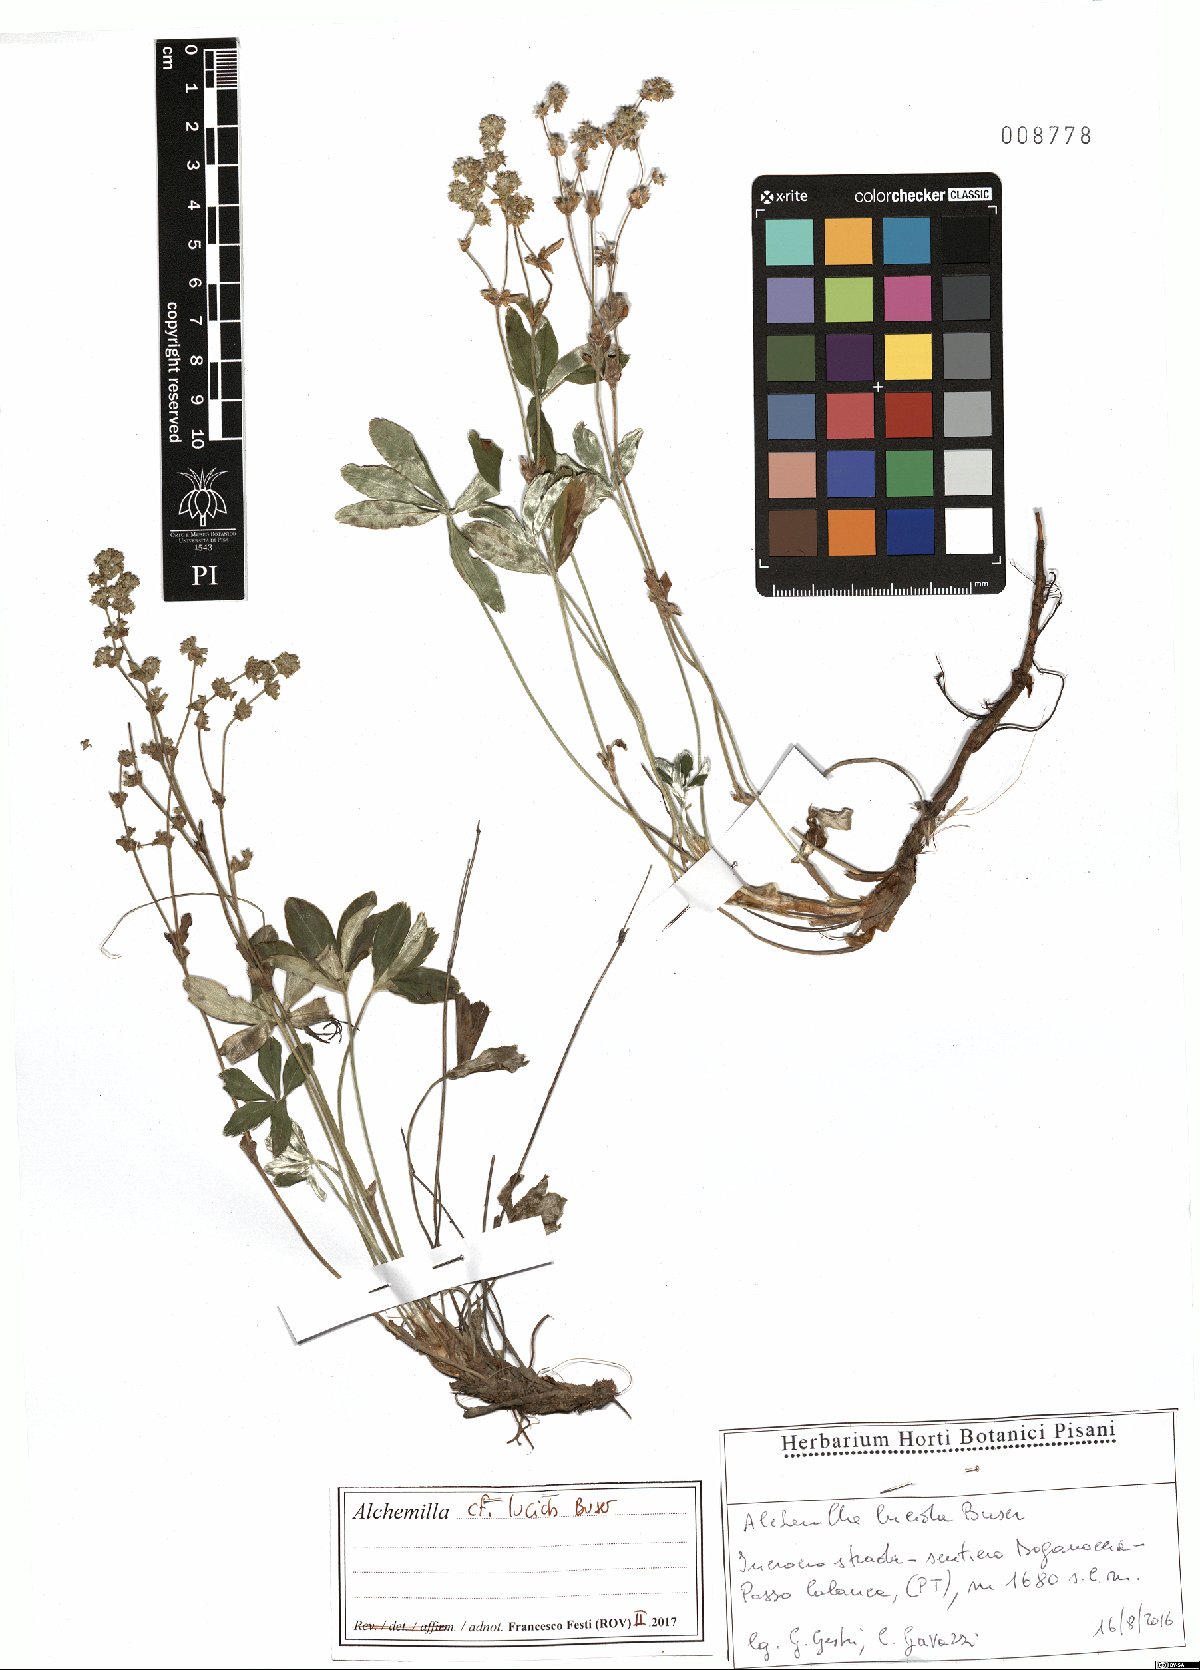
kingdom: Plantae
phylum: Tracheophyta
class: Magnoliopsida
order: Rosales
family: Rosaceae
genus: Alchemilla
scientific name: Alchemilla lucida
